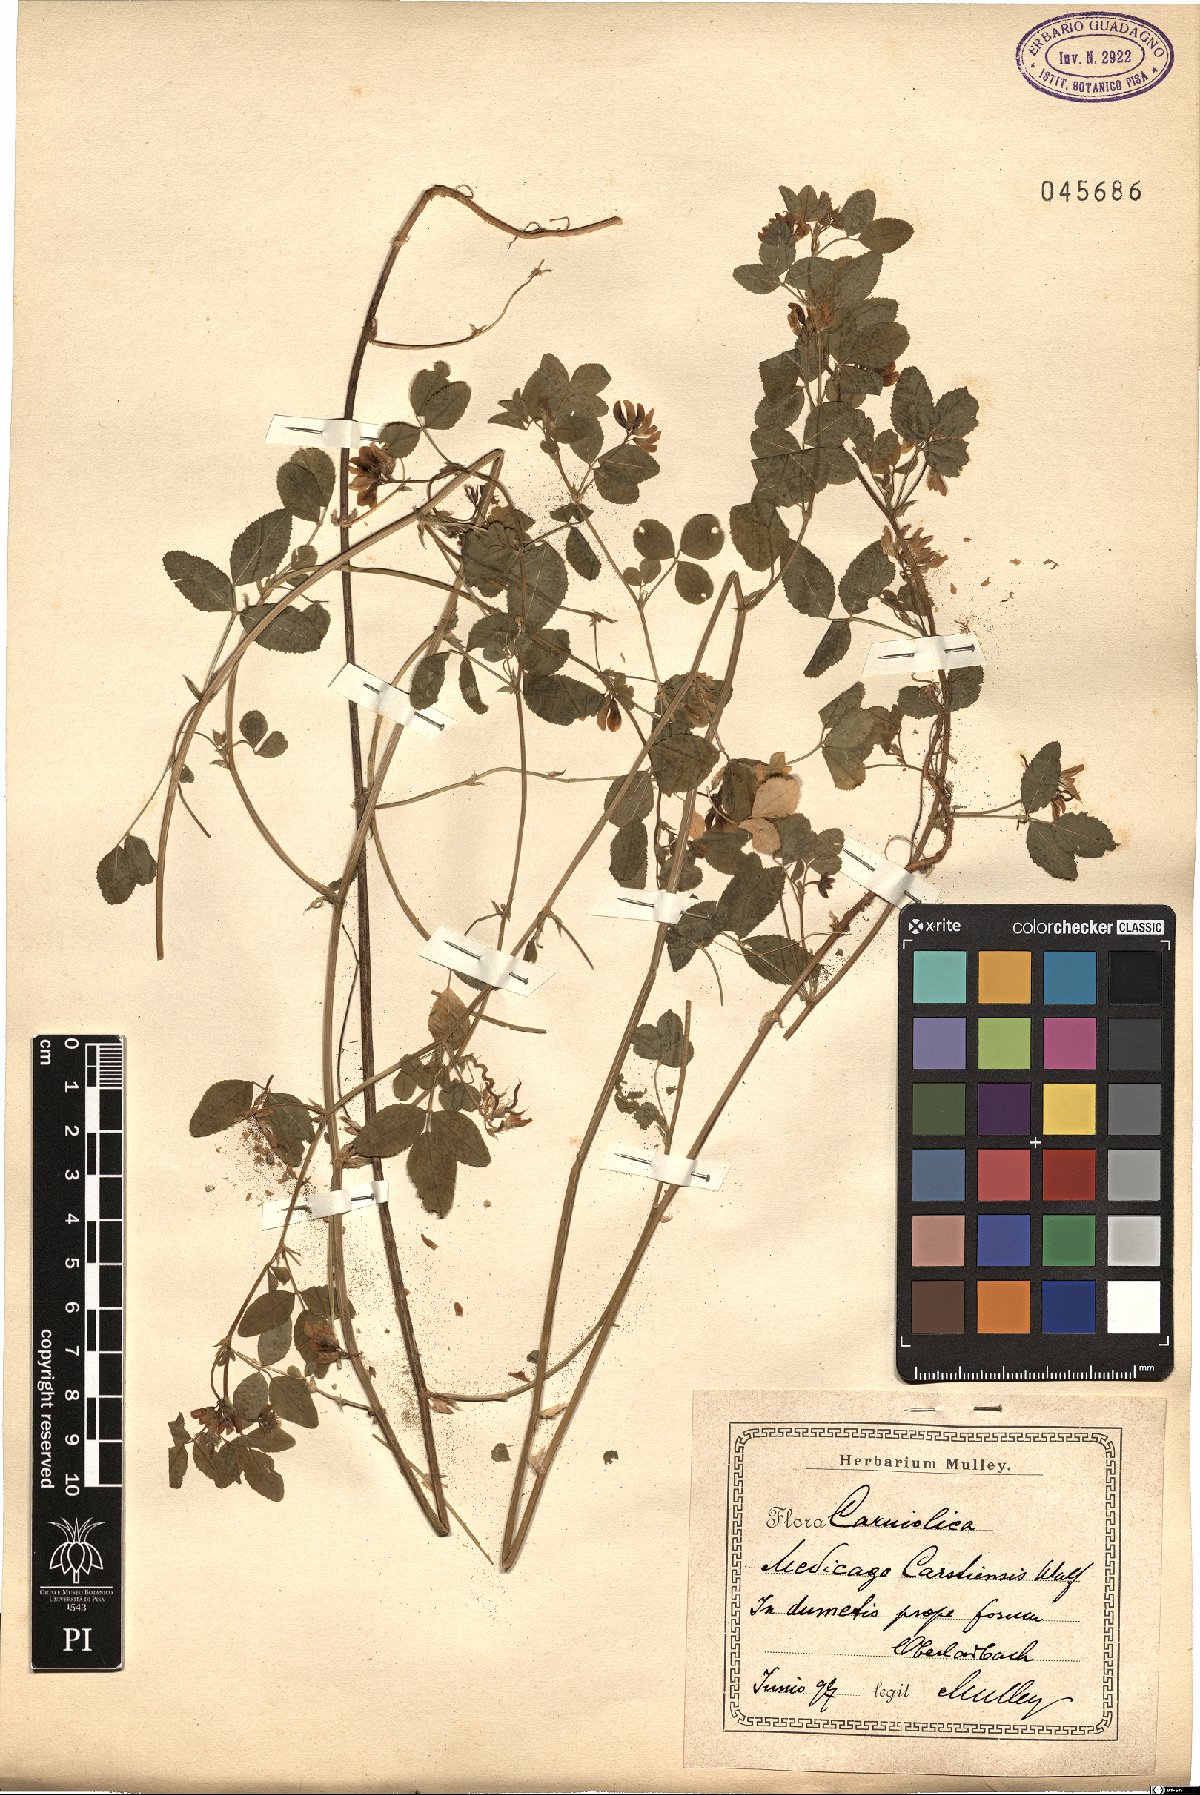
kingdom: Plantae
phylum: Tracheophyta
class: Magnoliopsida
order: Fabales
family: Fabaceae
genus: Medicago
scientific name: Medicago carstiensis
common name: Creeping-rooted medic
